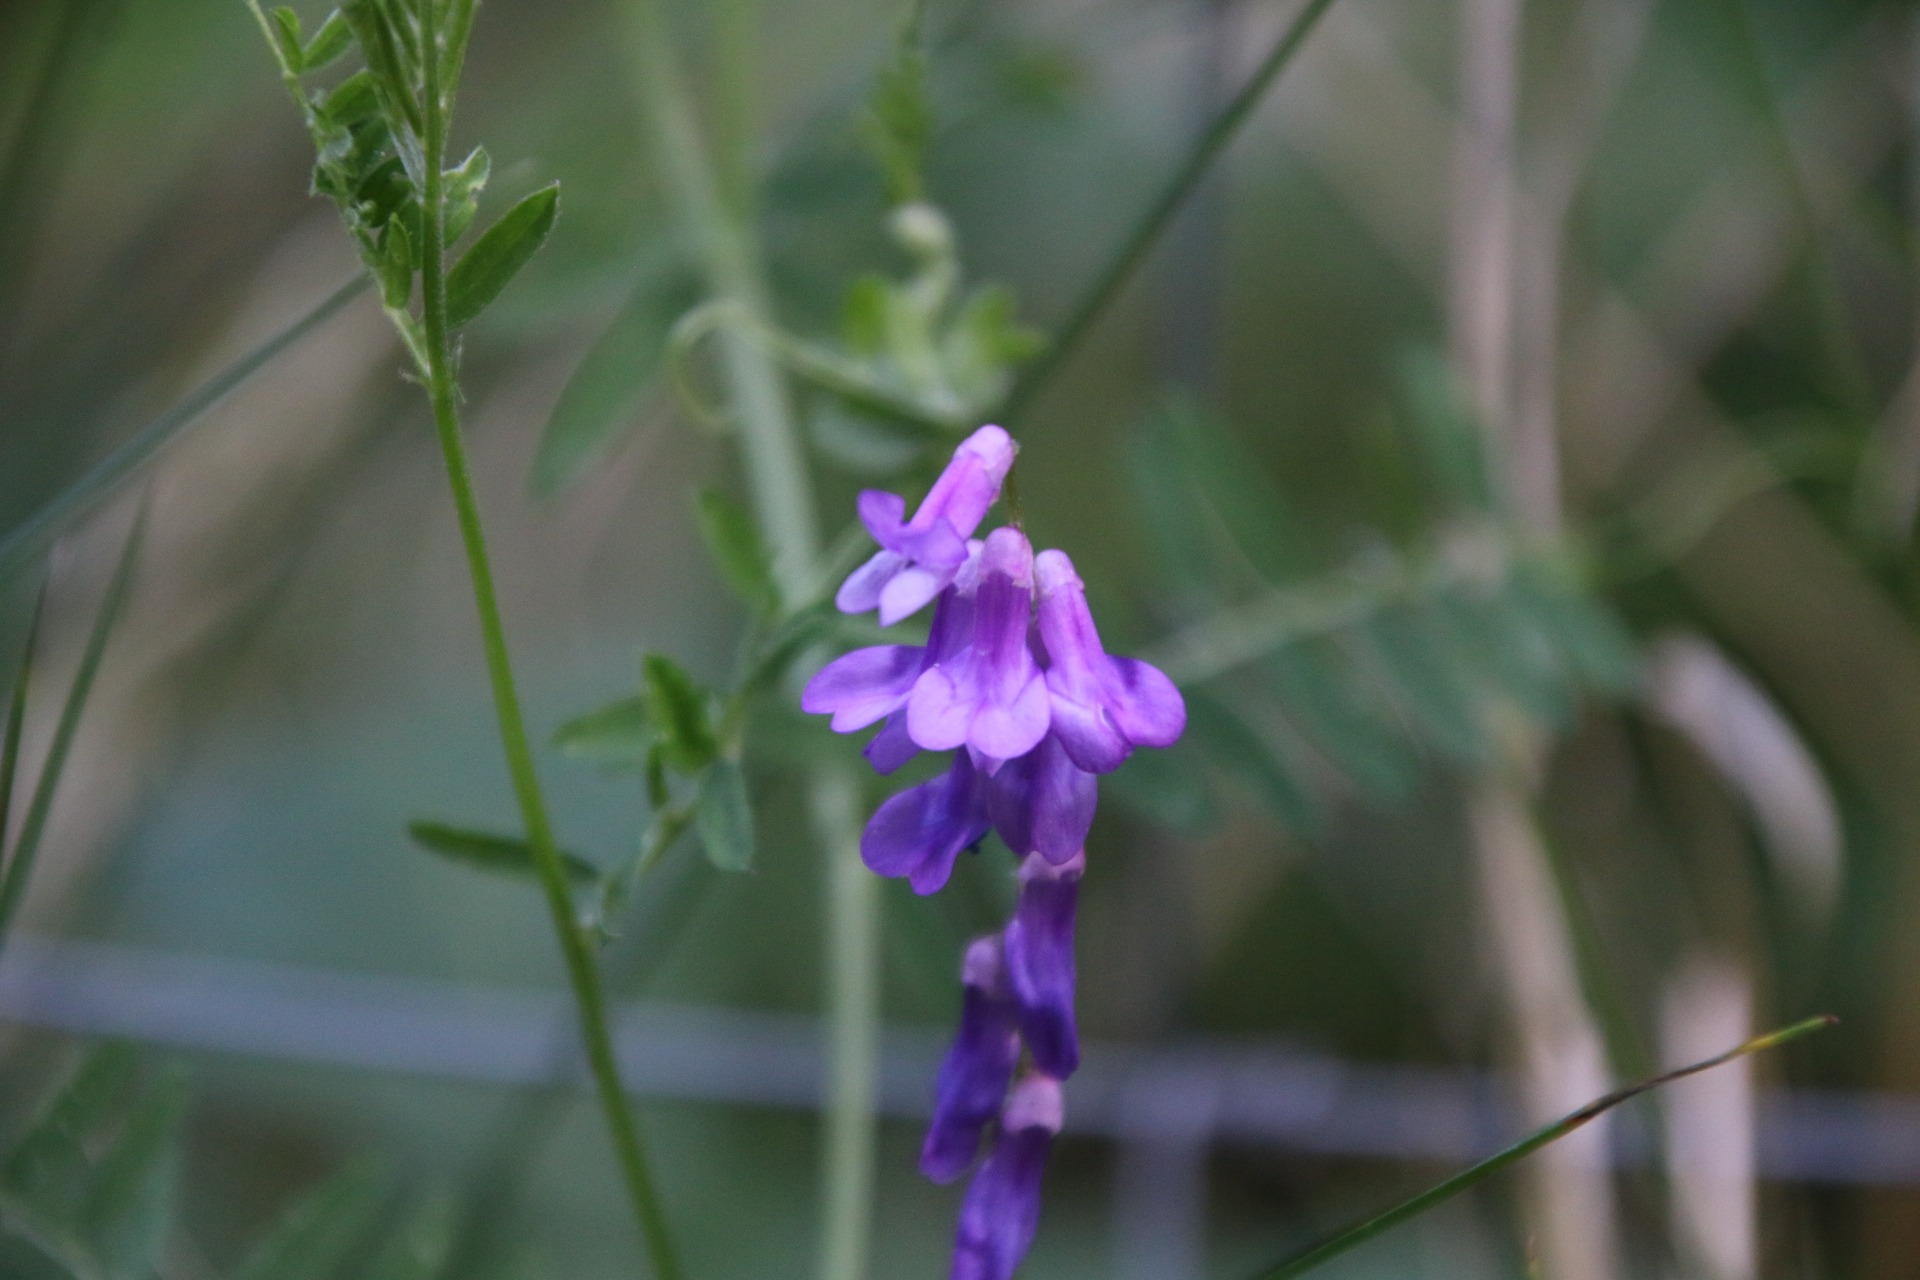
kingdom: Plantae
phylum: Tracheophyta
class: Magnoliopsida
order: Fabales
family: Fabaceae
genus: Vicia
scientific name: Vicia cracca
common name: Muse-vikke
